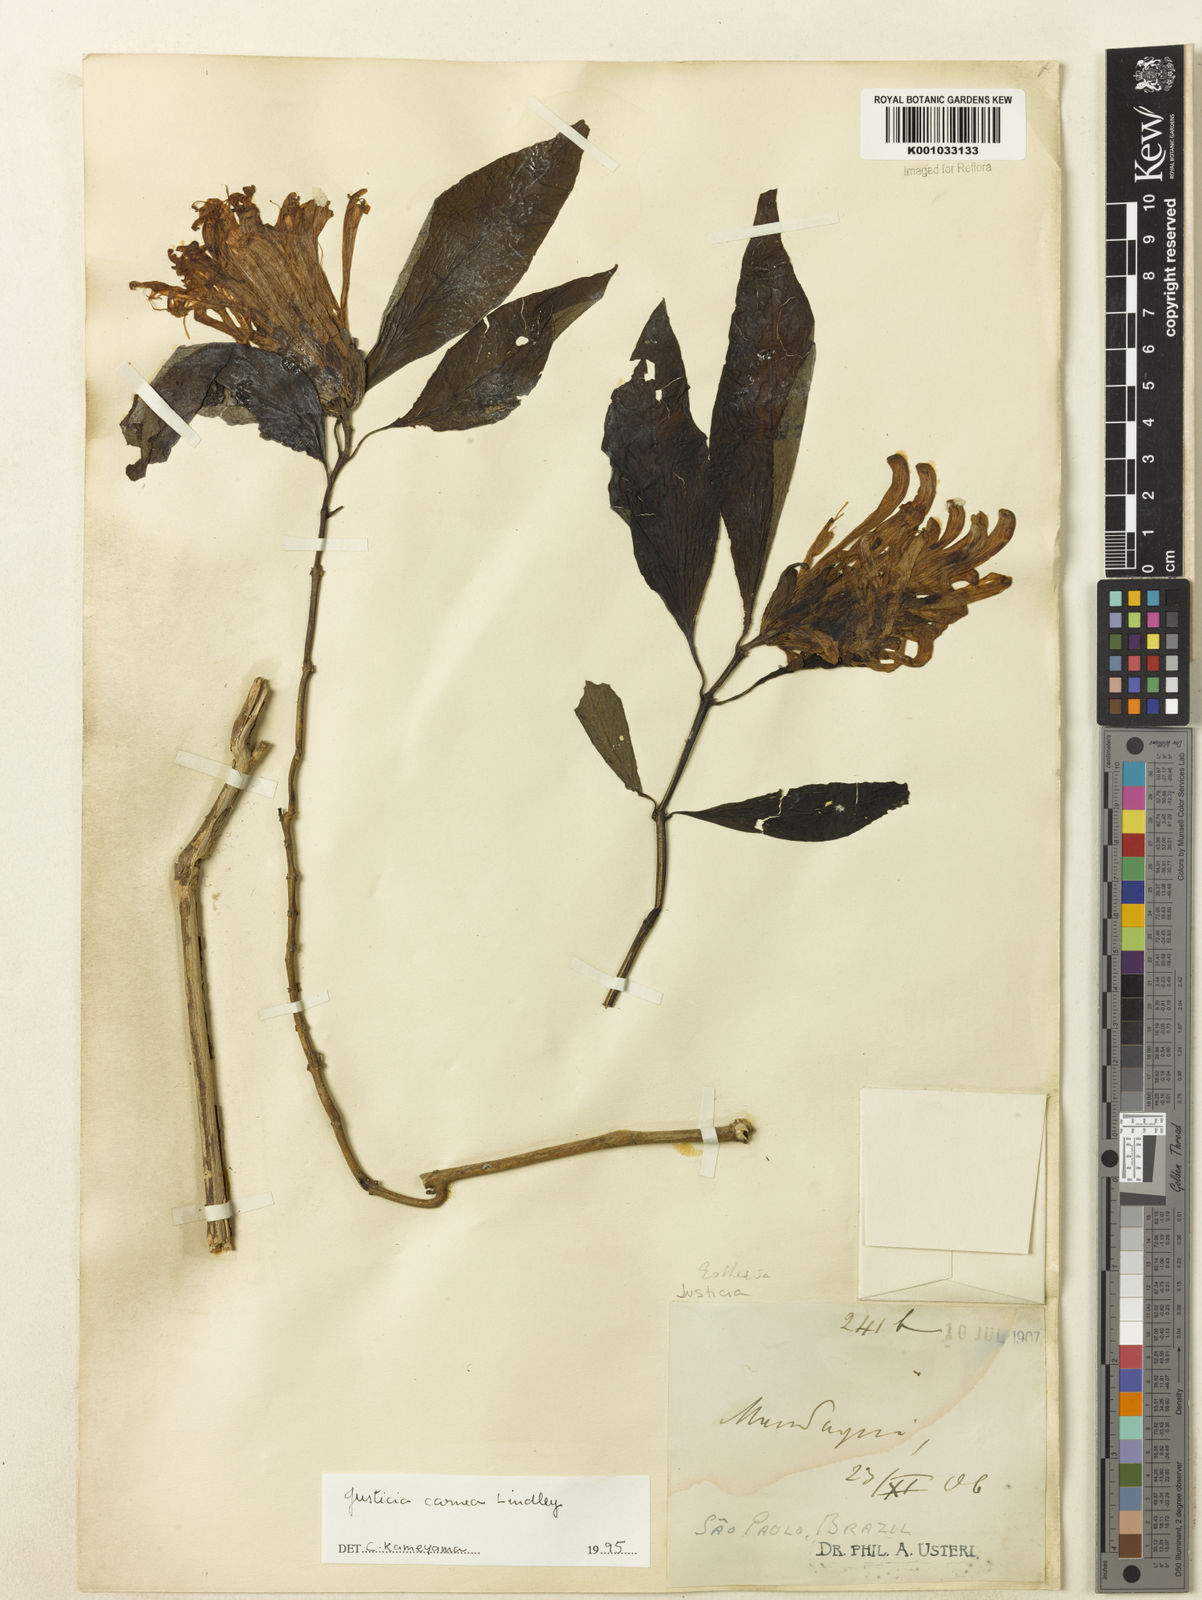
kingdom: Plantae
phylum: Tracheophyta
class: Magnoliopsida
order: Lamiales
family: Acanthaceae
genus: Justicia
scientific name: Justicia carnea
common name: Brazilian-plume
